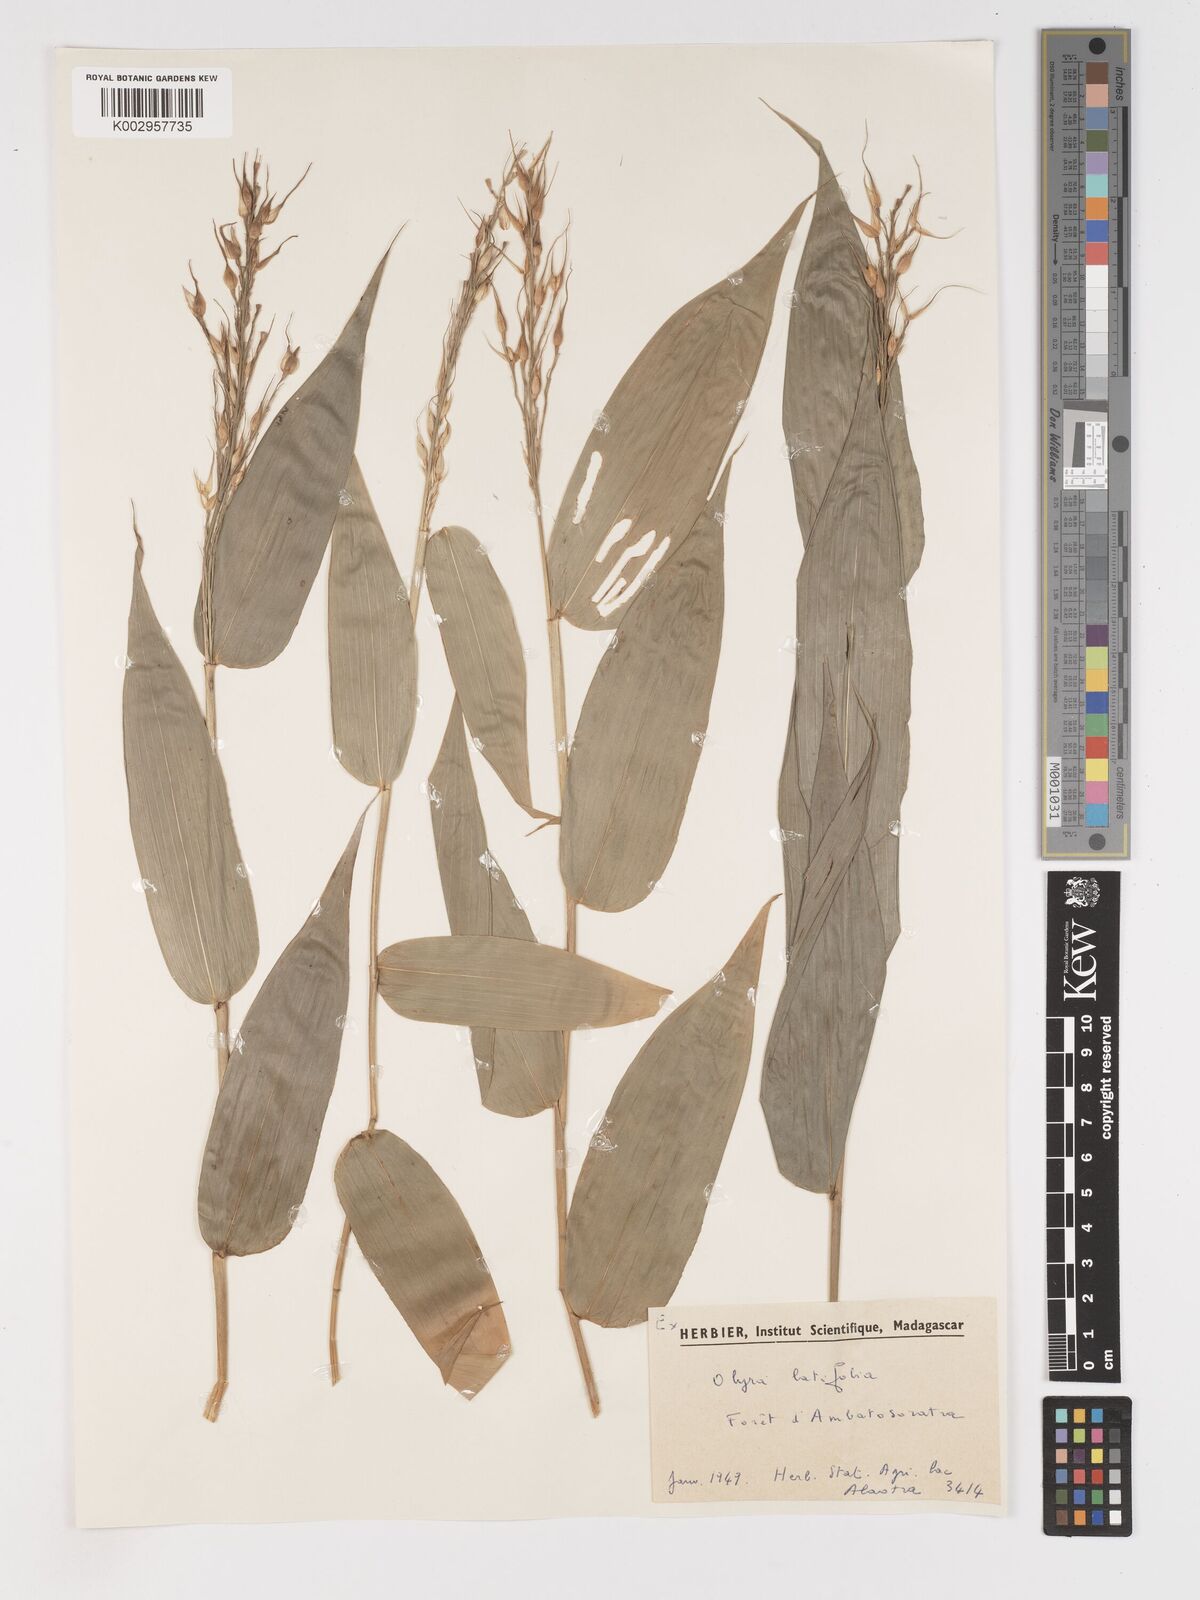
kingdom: Plantae
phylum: Tracheophyta
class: Liliopsida
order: Poales
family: Poaceae
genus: Olyra
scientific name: Olyra latifolia
